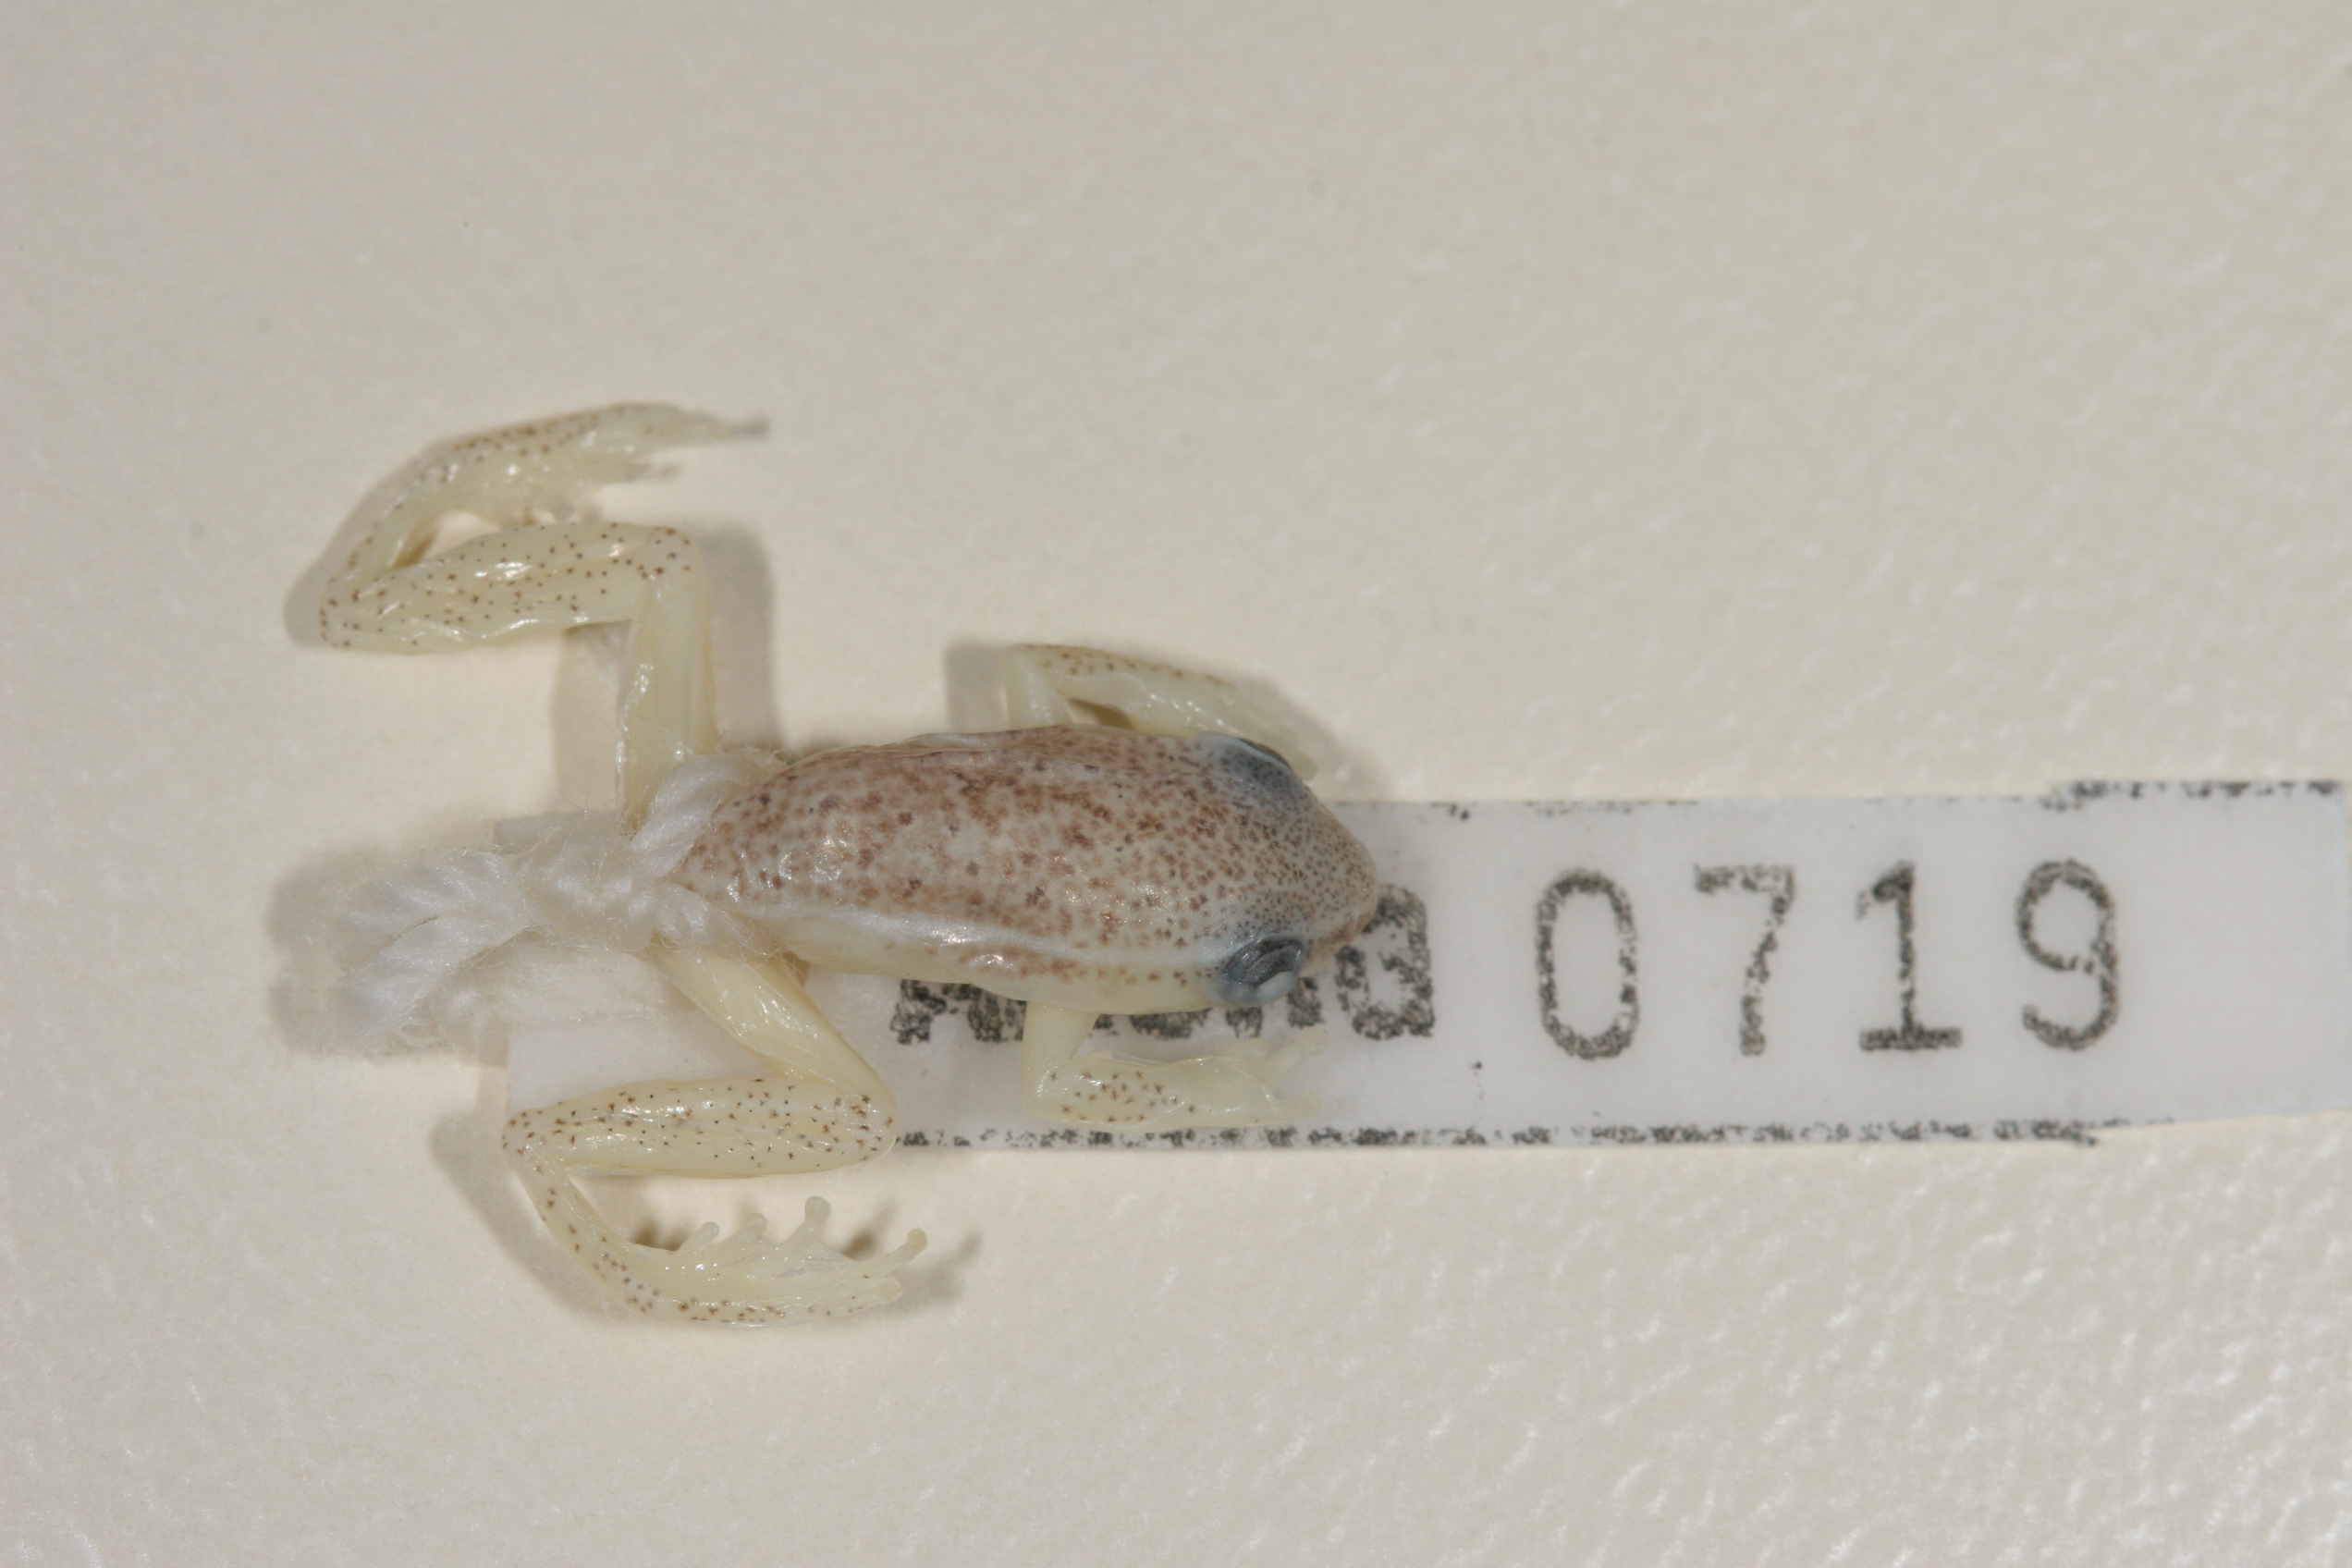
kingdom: Animalia
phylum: Chordata
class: Amphibia
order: Anura
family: Hyperoliidae
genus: Hyperolius
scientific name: Hyperolius nasutus
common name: Sharp-and-blunt-snouted sedge frog
